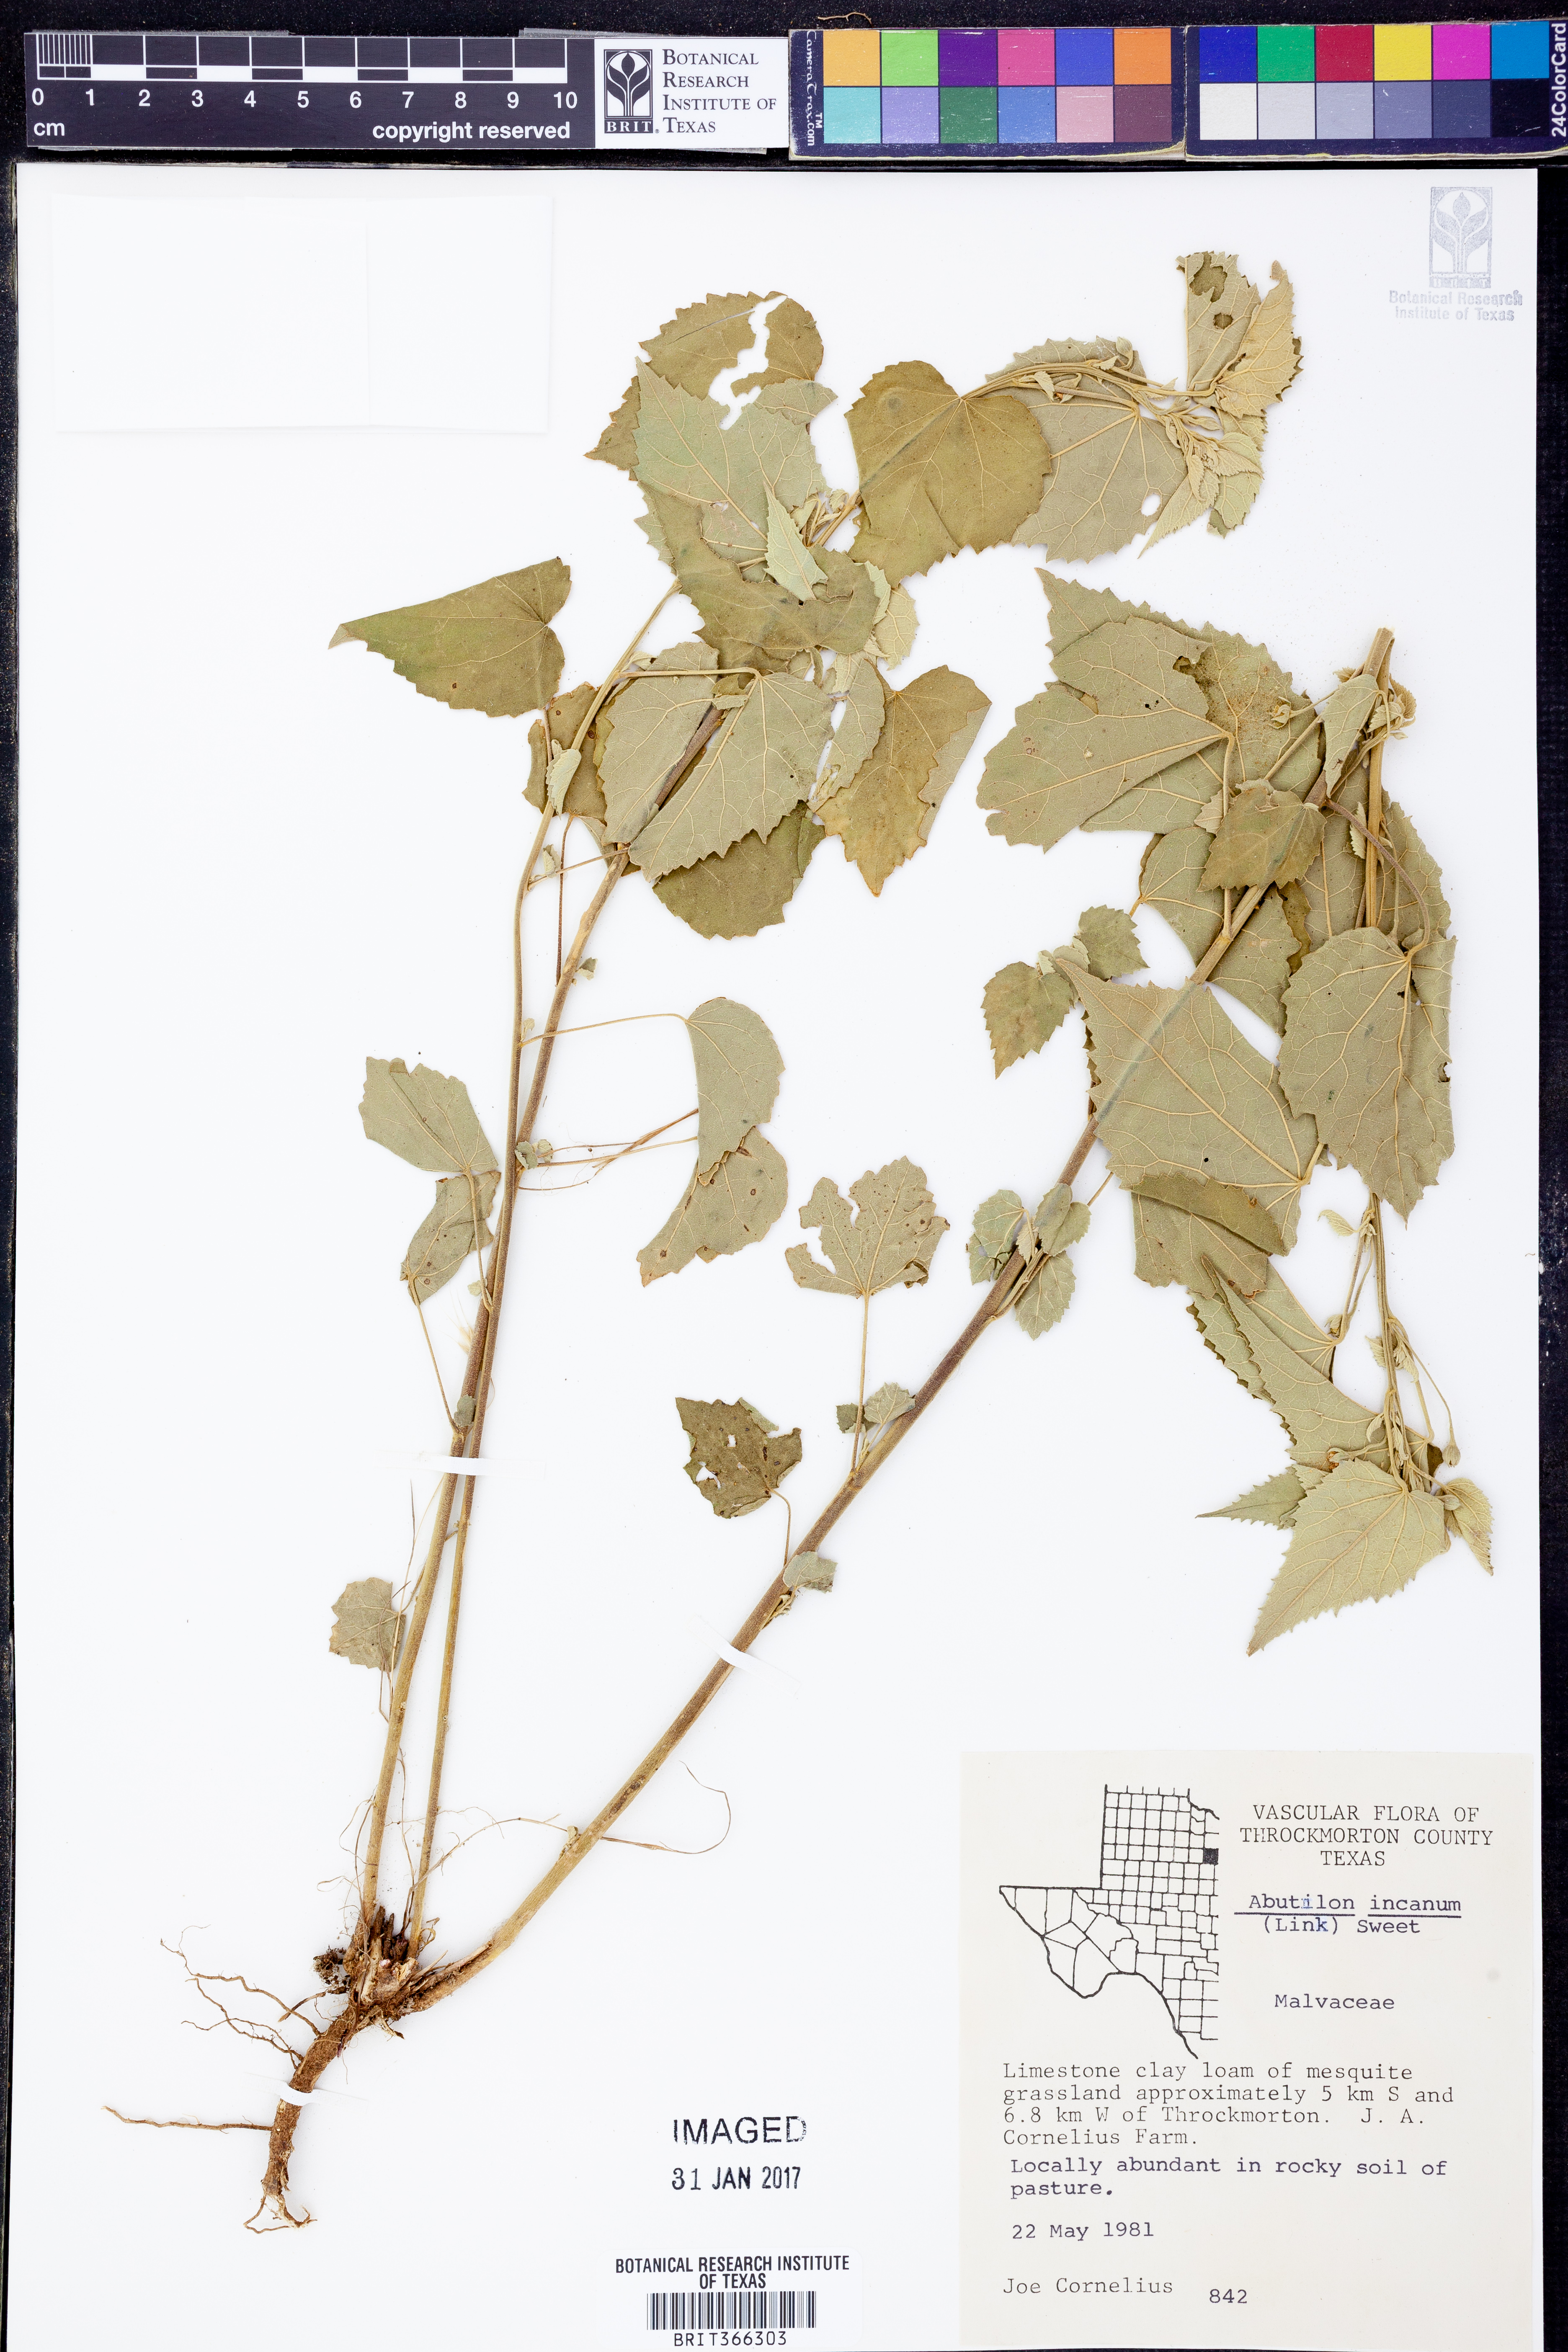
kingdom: Plantae
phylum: Tracheophyta
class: Magnoliopsida
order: Malvales
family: Malvaceae
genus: Abutilon
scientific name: Abutilon incanum
